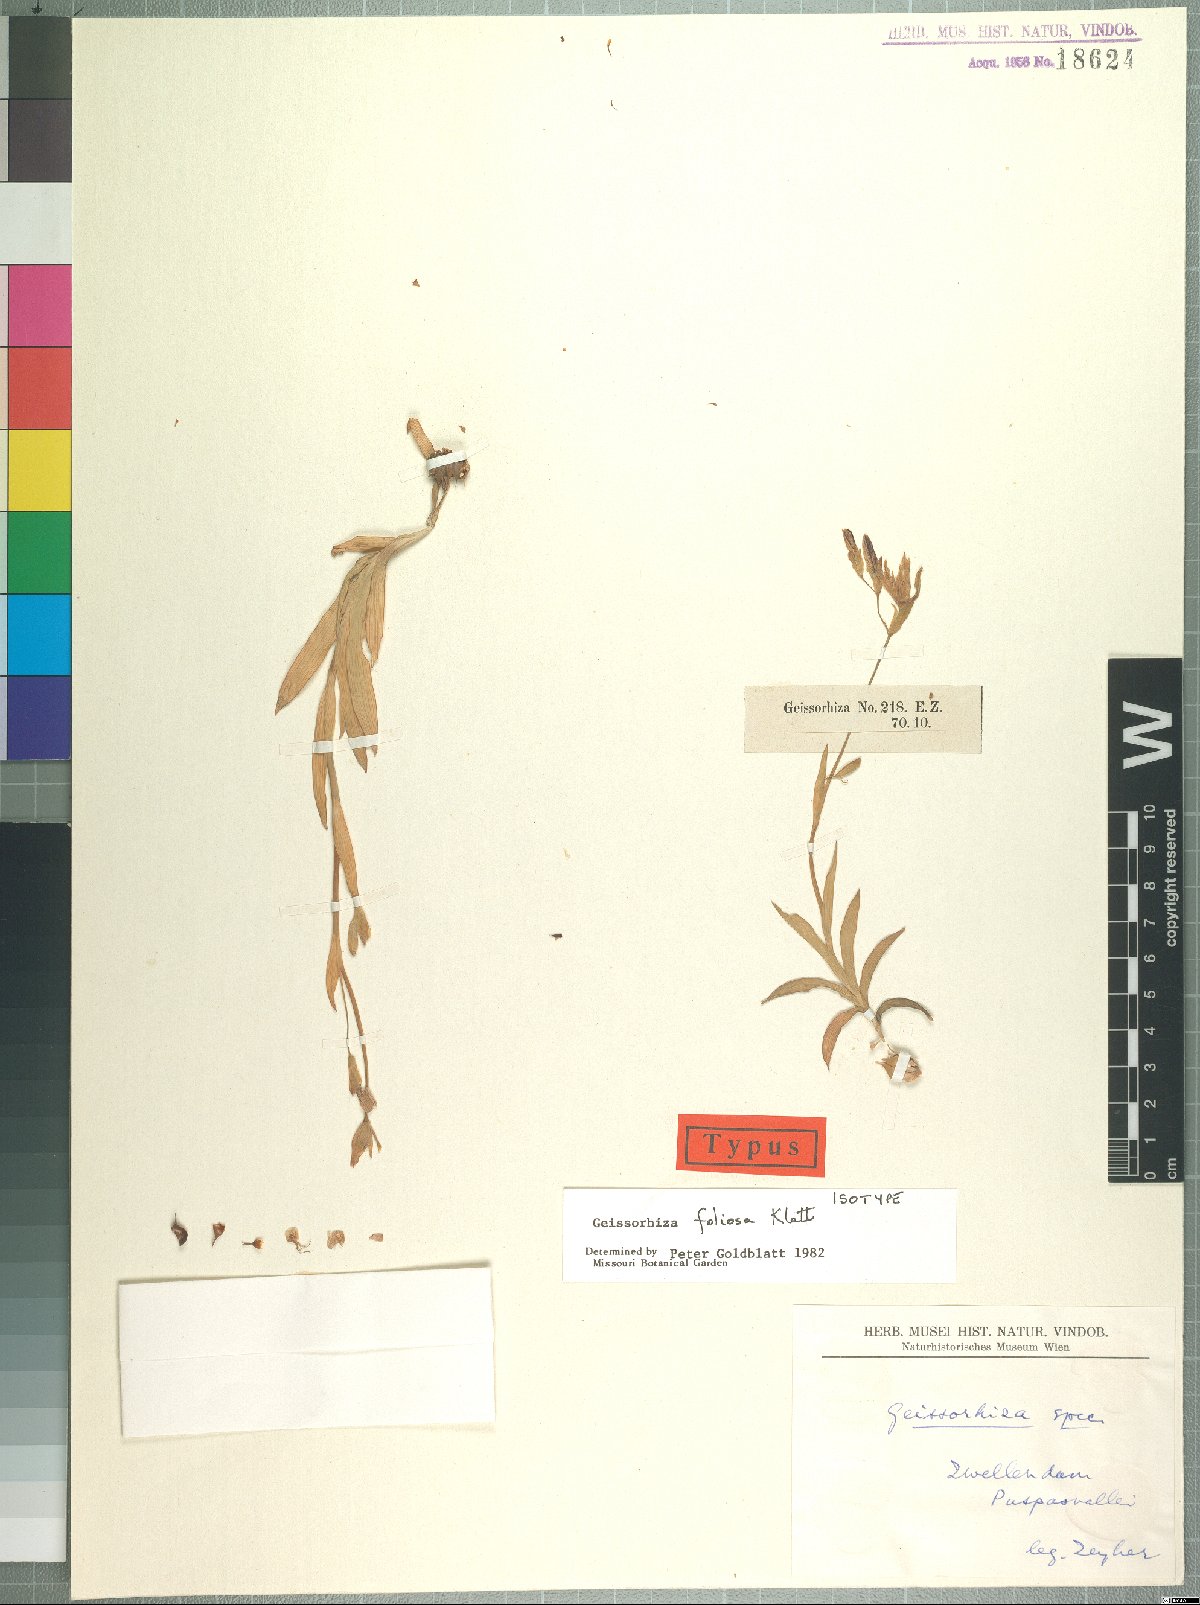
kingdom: Plantae
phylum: Tracheophyta
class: Liliopsida
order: Asparagales
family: Iridaceae
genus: Geissorhiza
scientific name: Geissorhiza foliosa
